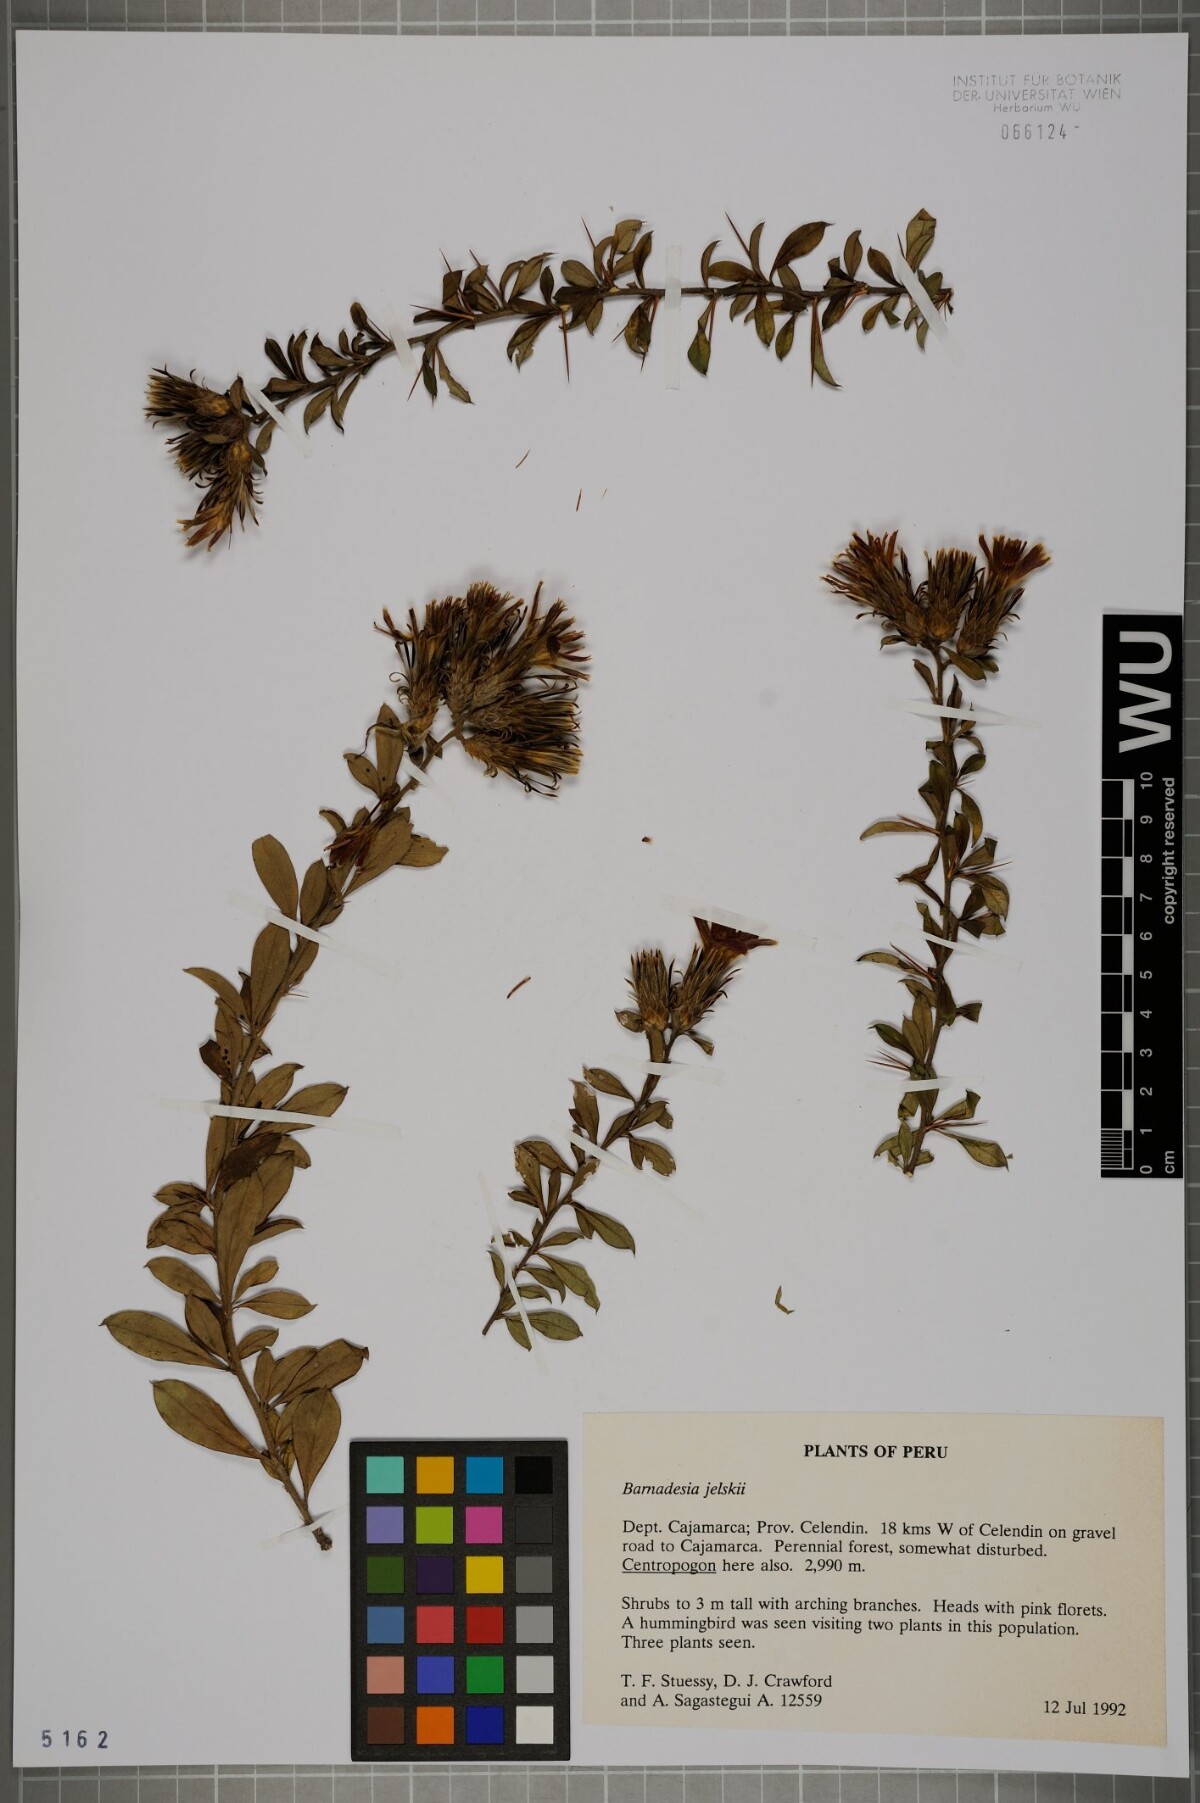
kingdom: Plantae
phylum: Tracheophyta
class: Magnoliopsida
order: Asterales
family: Asteraceae
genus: Barnadesia
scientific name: Barnadesia jelskii
